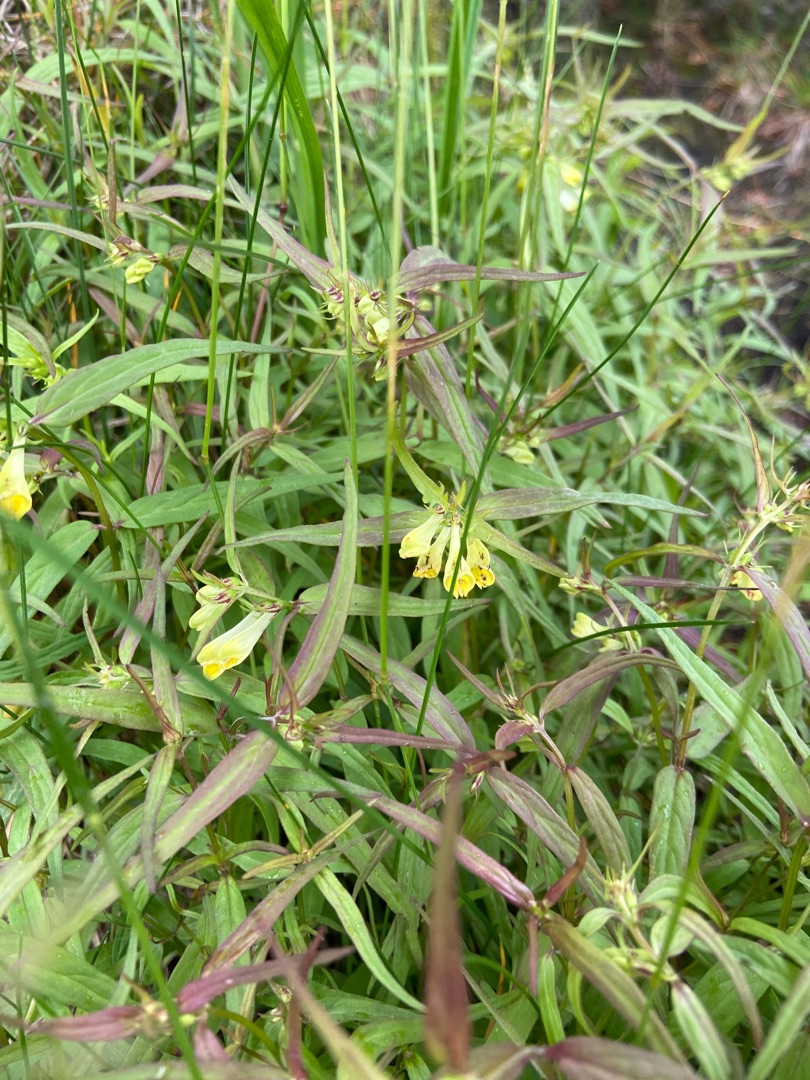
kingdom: Plantae
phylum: Tracheophyta
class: Magnoliopsida
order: Lamiales
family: Orobanchaceae
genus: Melampyrum
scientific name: Melampyrum pratense
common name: Almindelig kohvede
